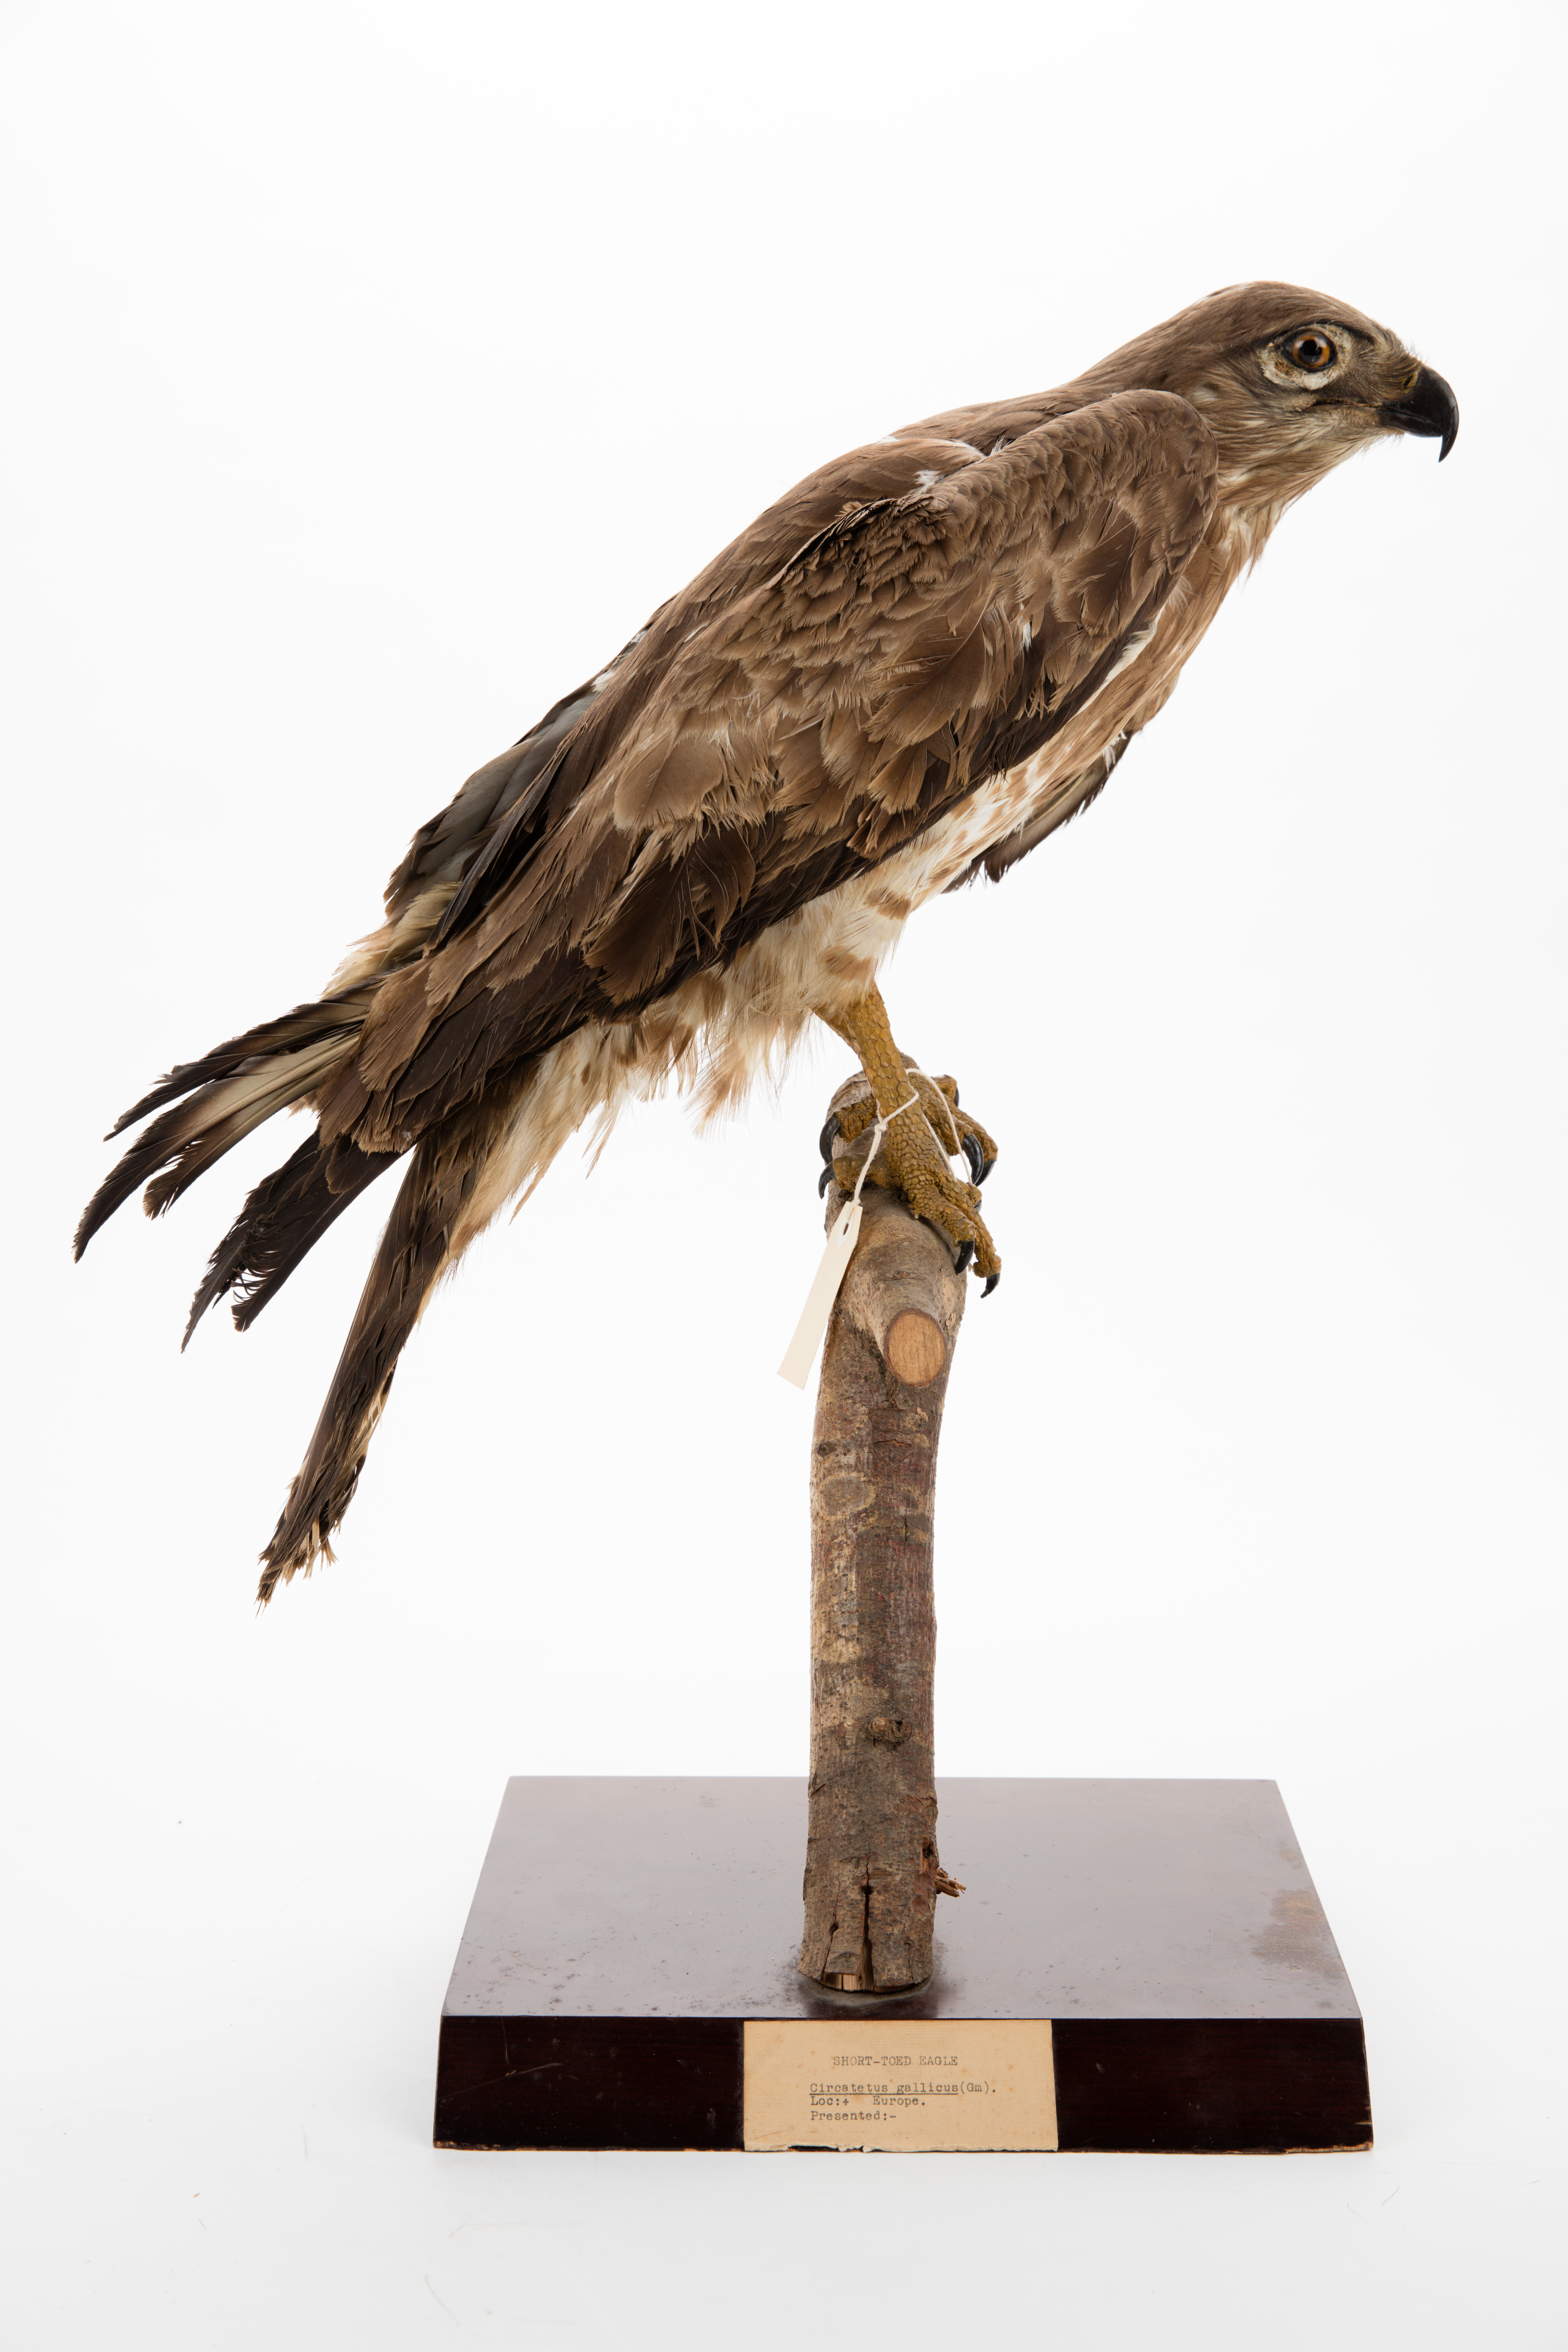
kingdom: Animalia
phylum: Chordata
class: Aves
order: Accipitriformes
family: Accipitridae
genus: Circaetus
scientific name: Circaetus gallicus
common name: Short-toed snake eagle
